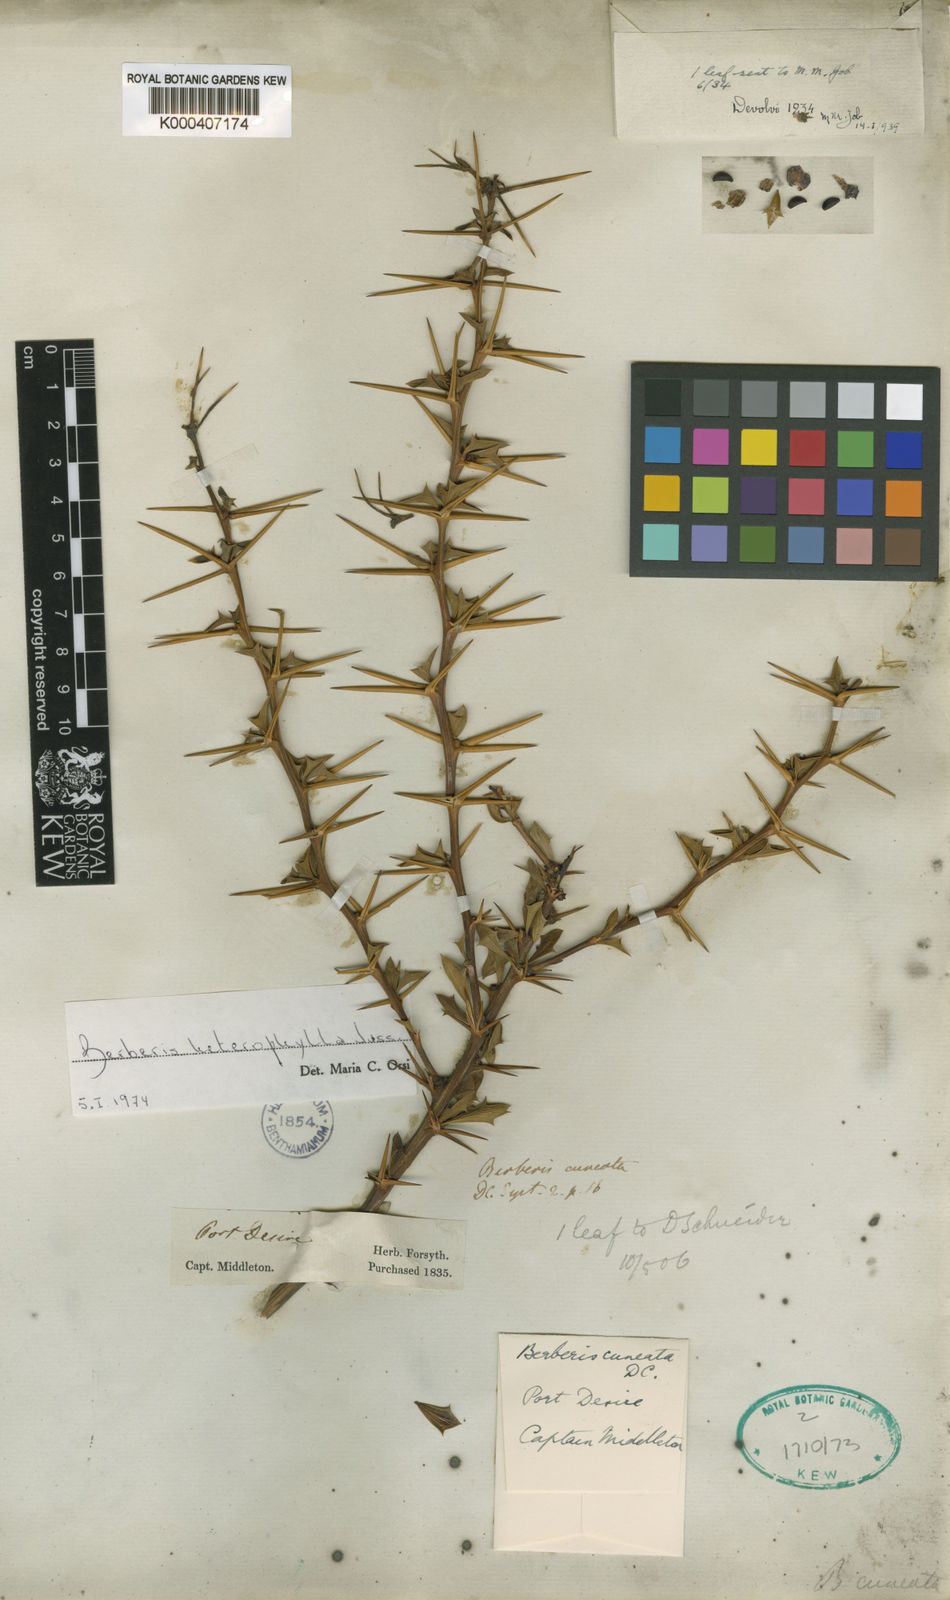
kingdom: Plantae
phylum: Tracheophyta
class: Magnoliopsida
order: Ranunculales
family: Berberidaceae
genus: Berberis
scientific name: Berberis microphylla
